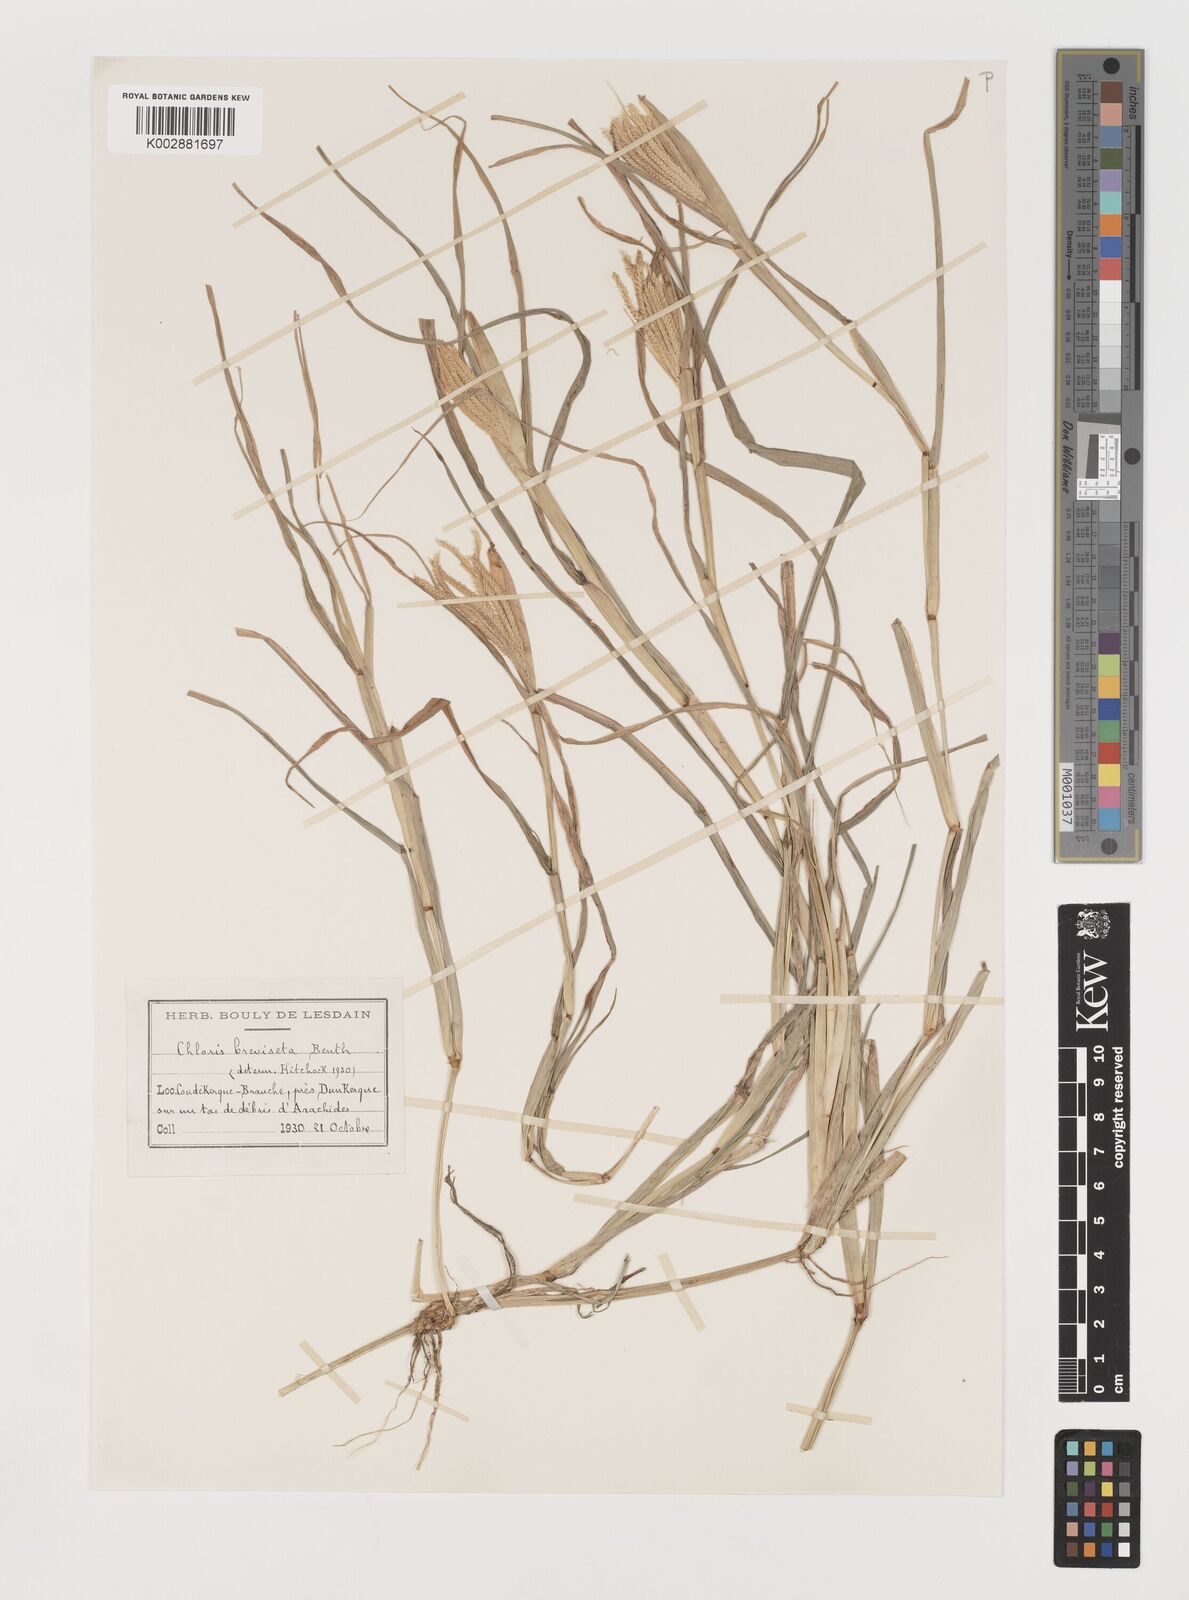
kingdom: Plantae
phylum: Tracheophyta
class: Liliopsida
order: Poales
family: Poaceae
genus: Chloris
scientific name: Chloris pilosa
